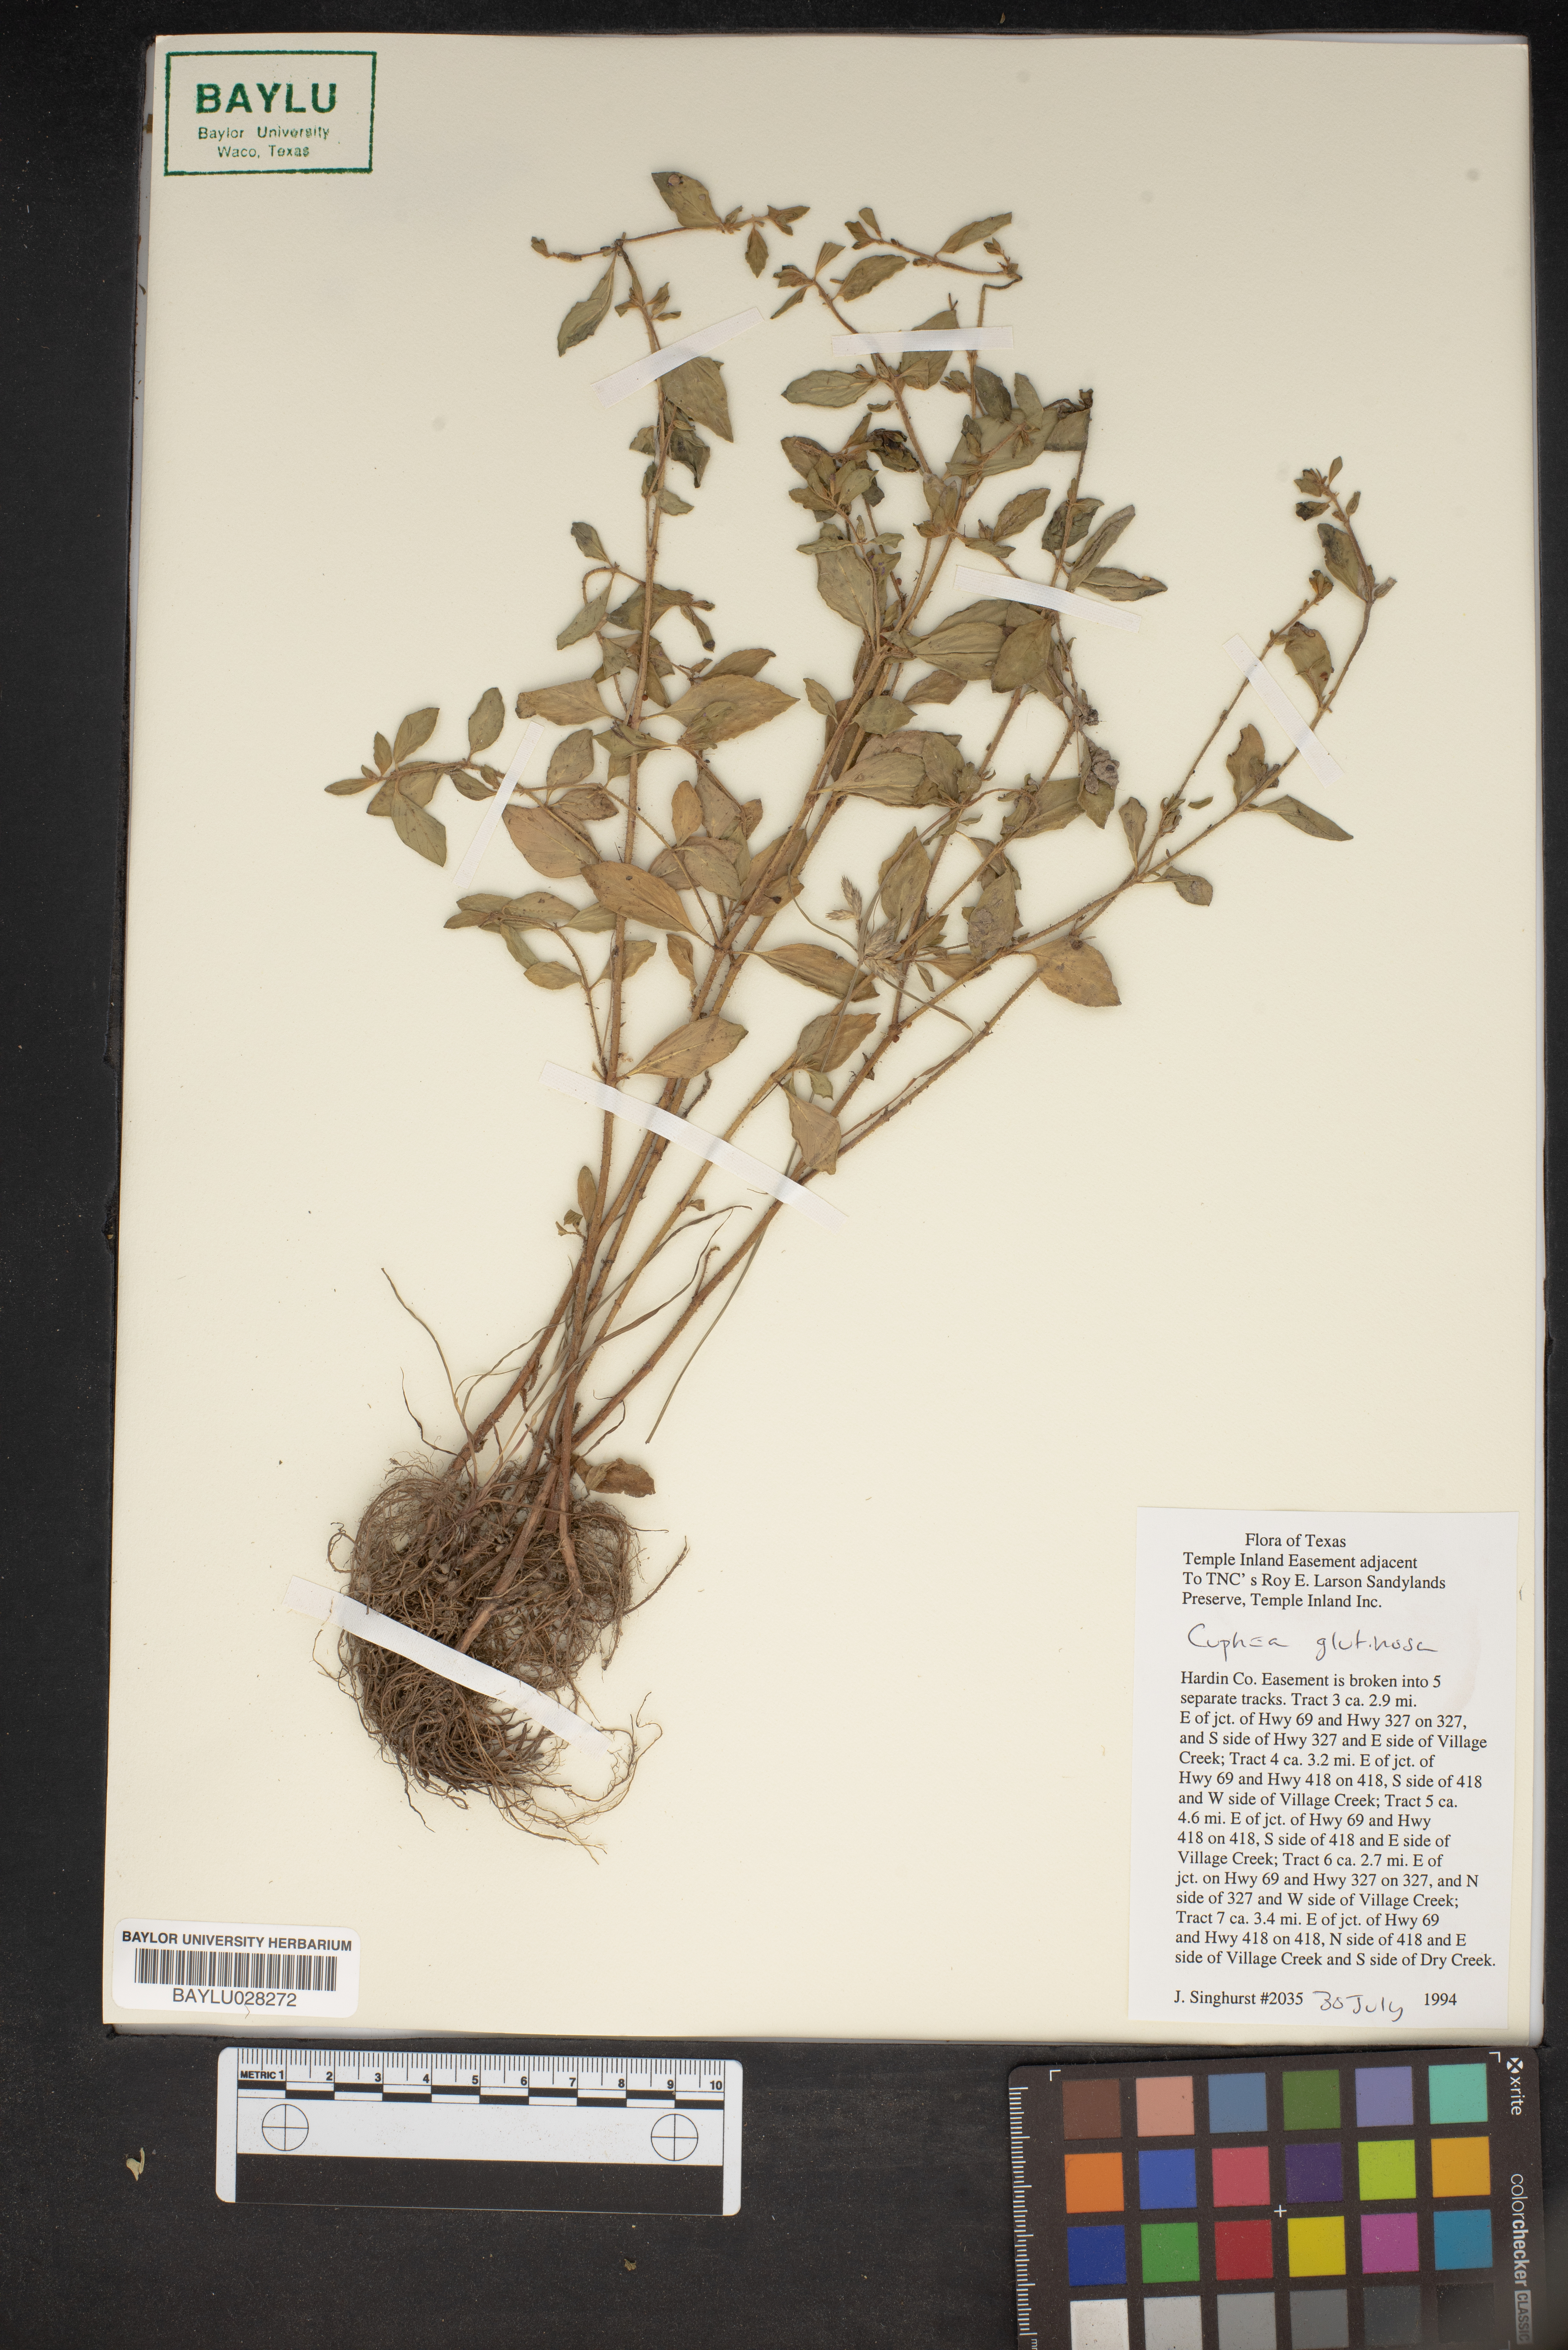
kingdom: Plantae
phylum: Tracheophyta
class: Magnoliopsida
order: Myrtales
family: Lythraceae
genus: Cuphea
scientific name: Cuphea glutinosa
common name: Sticky waxweed
